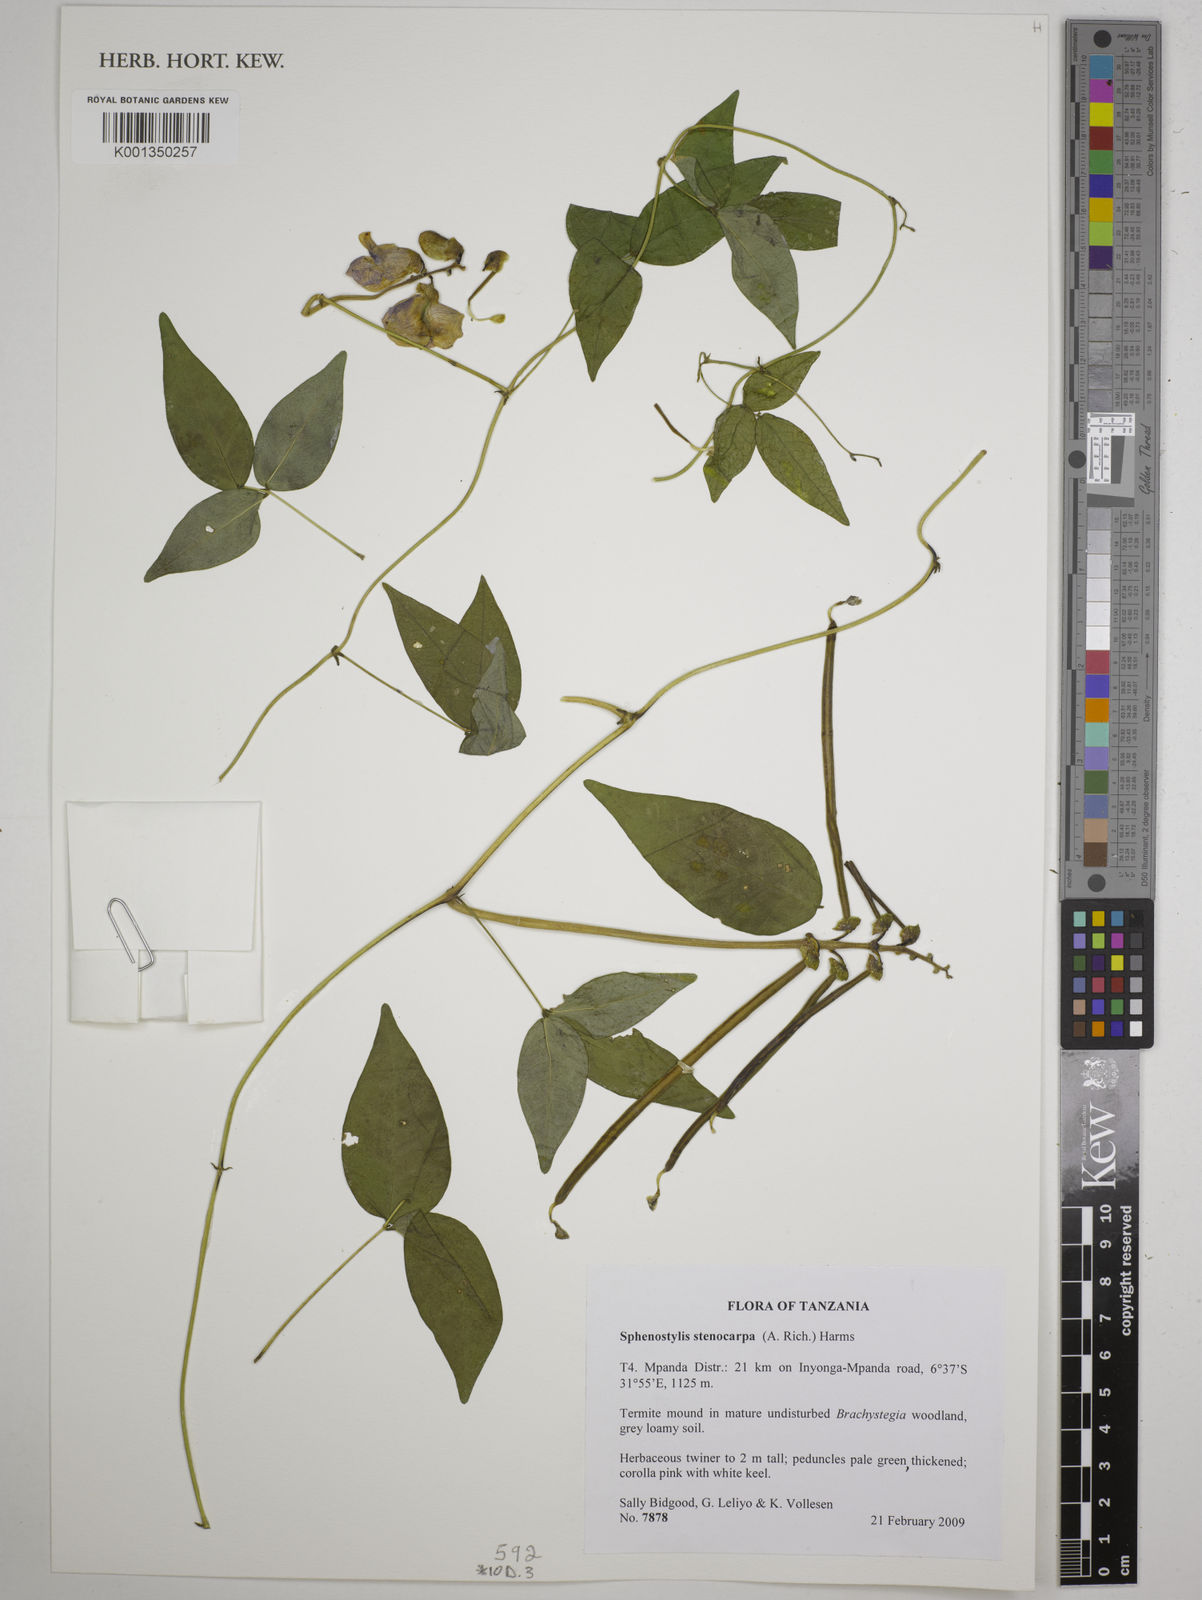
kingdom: Plantae
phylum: Tracheophyta
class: Magnoliopsida
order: Fabales
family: Fabaceae
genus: Sphenostylis
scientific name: Sphenostylis stenocarpa
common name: Yam-pea
